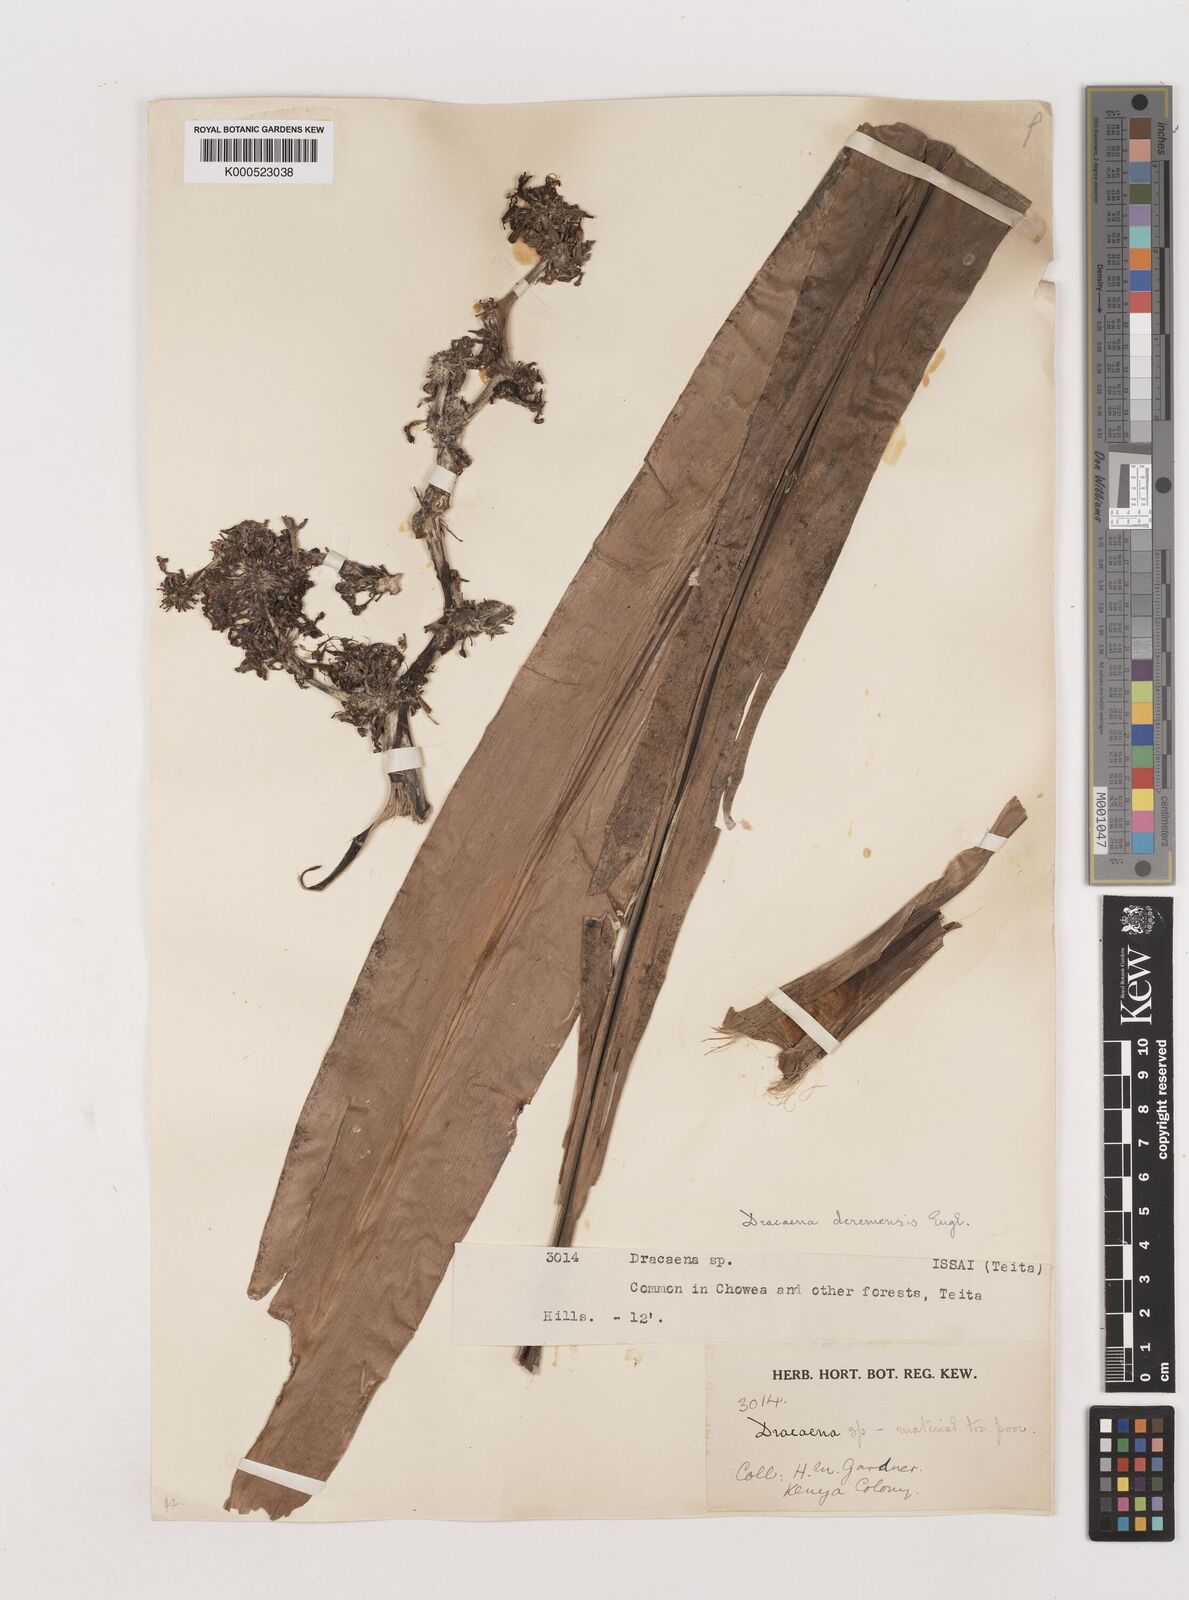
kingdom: Plantae
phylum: Tracheophyta
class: Liliopsida
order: Asparagales
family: Asparagaceae
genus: Dracaena
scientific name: Dracaena fragrans
